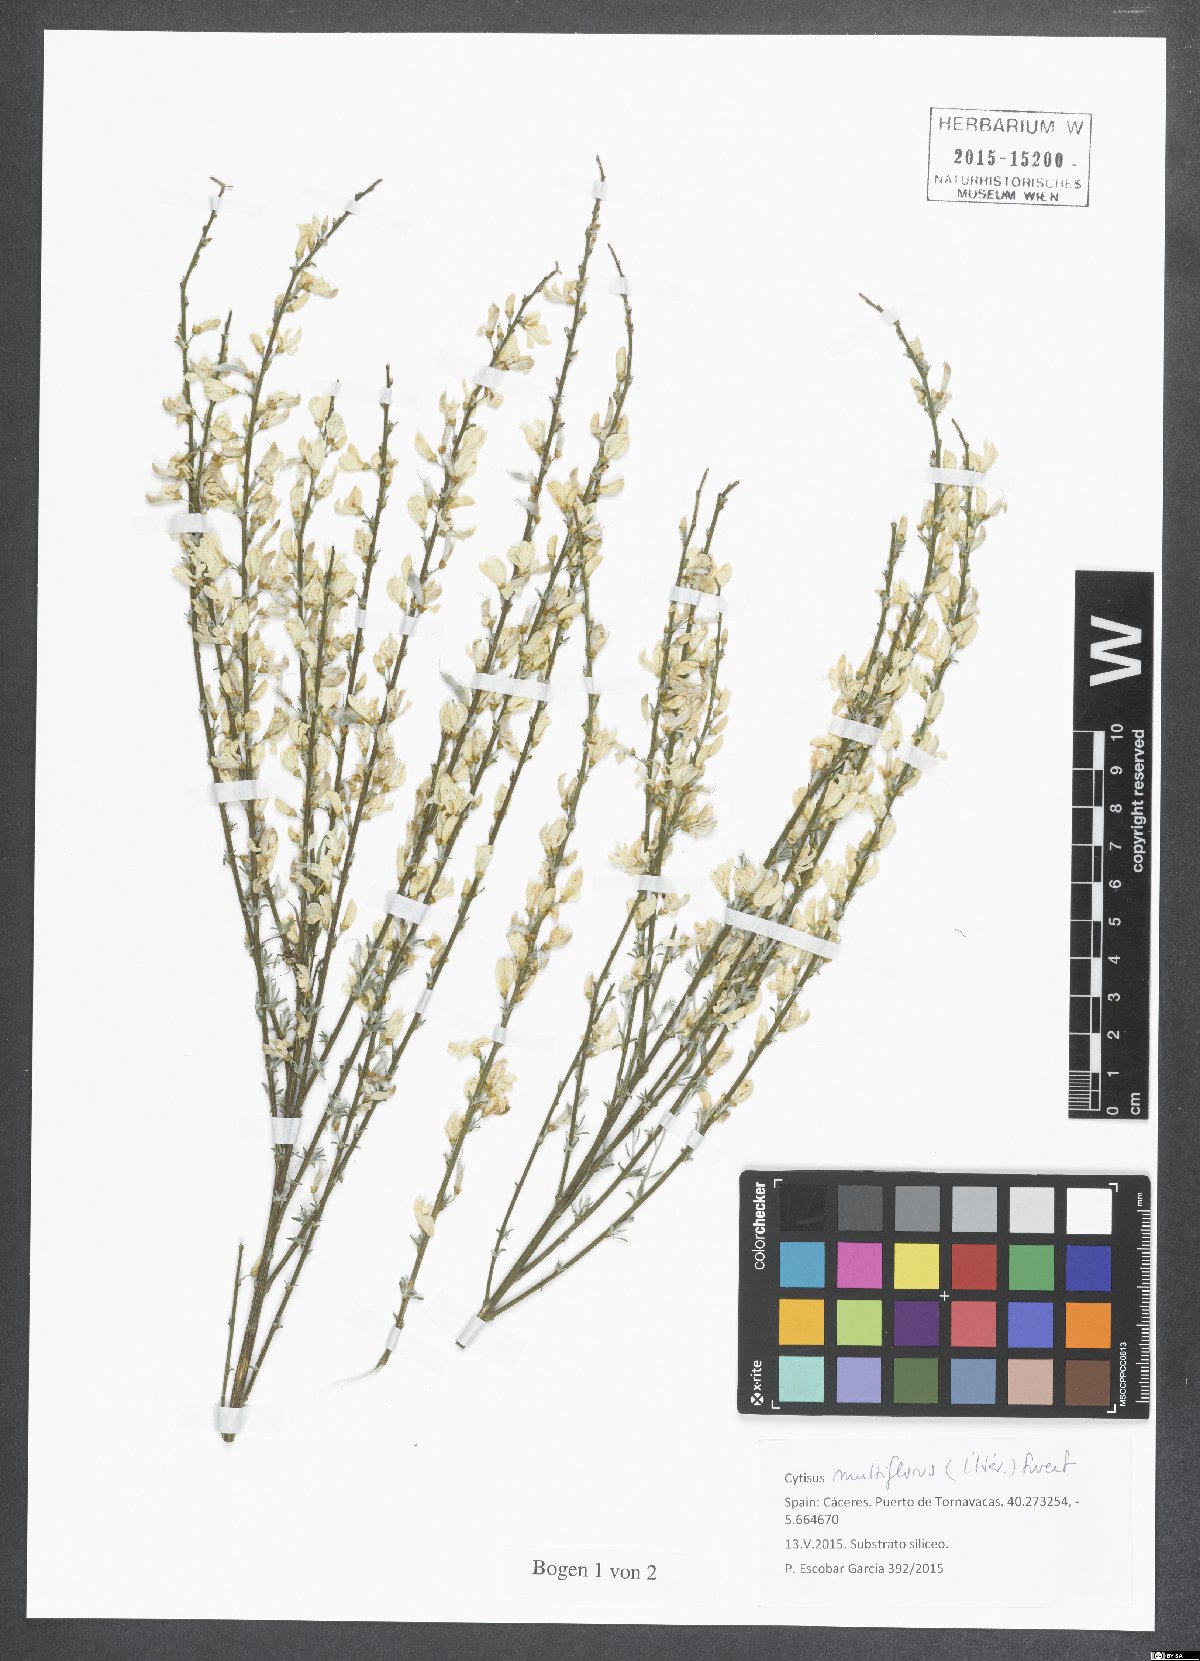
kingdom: Plantae
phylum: Tracheophyta
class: Magnoliopsida
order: Fabales
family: Fabaceae
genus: Cytisus
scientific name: Cytisus multiflorus
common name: White broom
